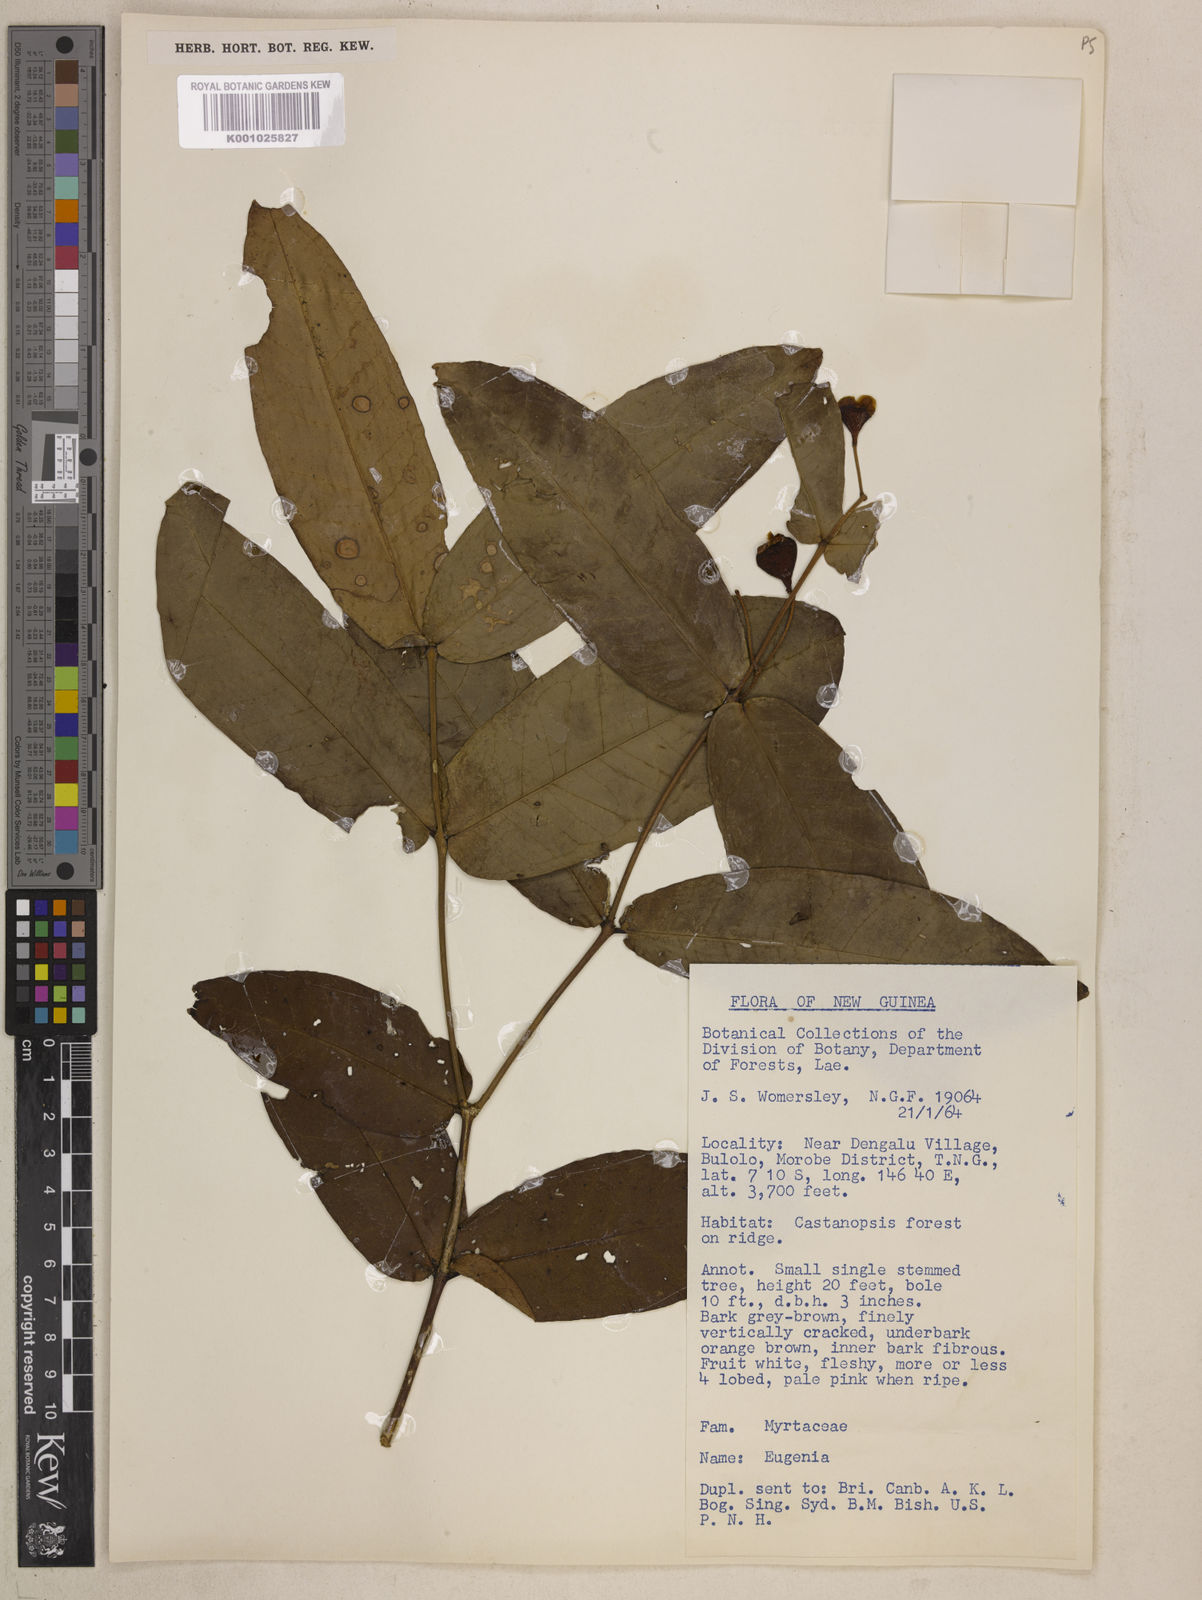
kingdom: Plantae
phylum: Tracheophyta
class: Magnoliopsida
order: Myrtales
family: Myrtaceae
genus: Syzygium
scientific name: Syzygium daphne
